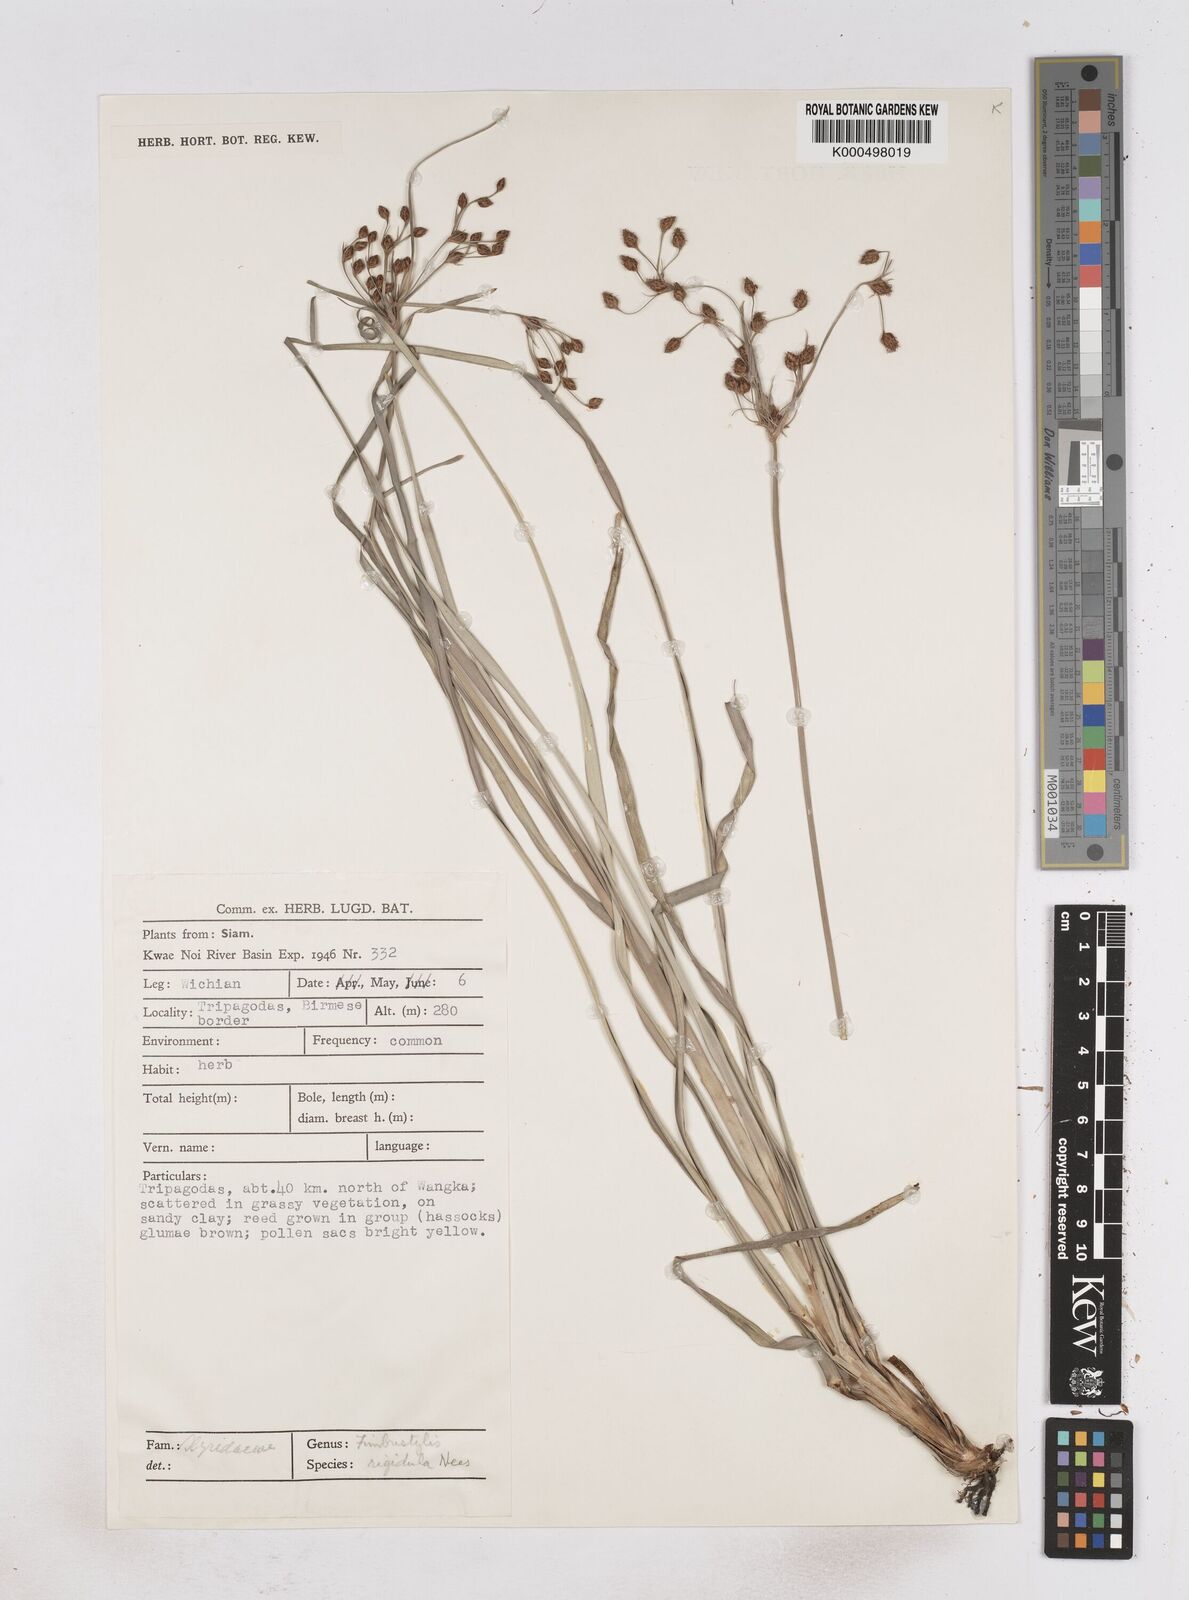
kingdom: Plantae
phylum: Tracheophyta
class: Liliopsida
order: Poales
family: Cyperaceae
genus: Fimbristylis
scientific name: Fimbristylis rigidula
